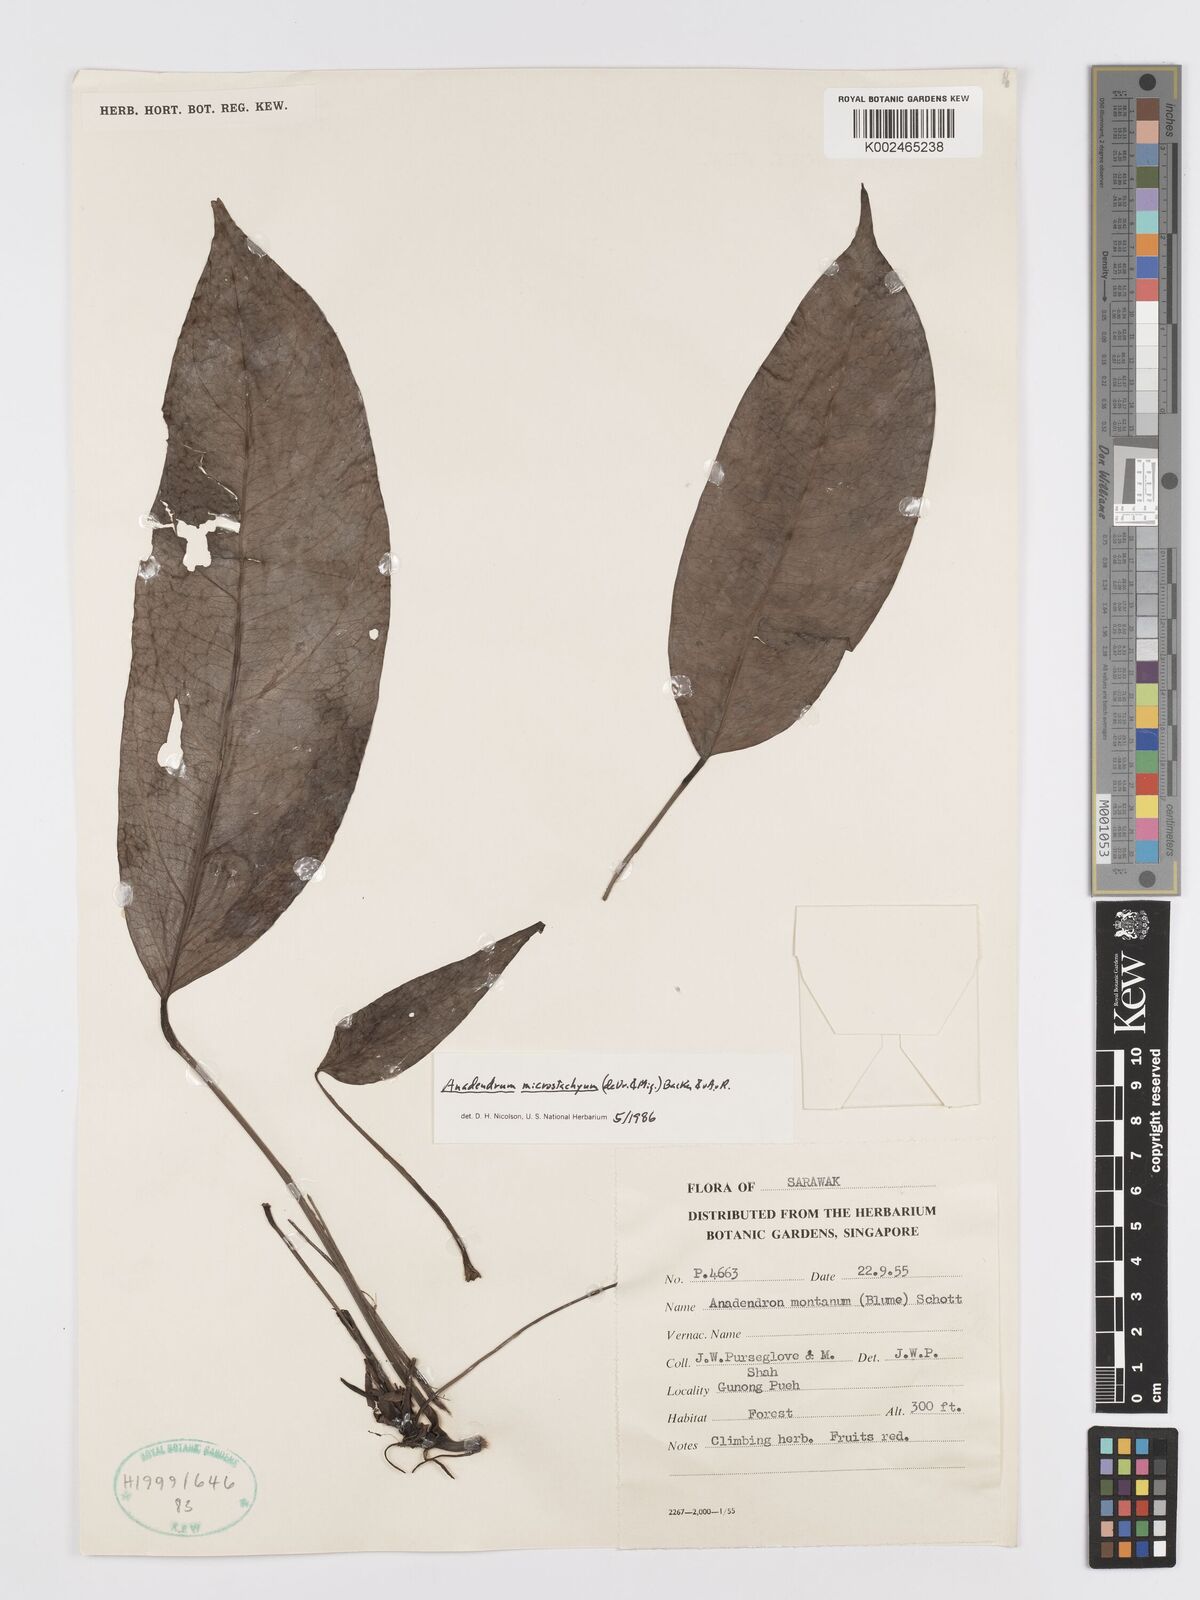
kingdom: Plantae
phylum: Tracheophyta
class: Liliopsida
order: Alismatales
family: Araceae
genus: Anadendrum
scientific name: Anadendrum microstachyum
